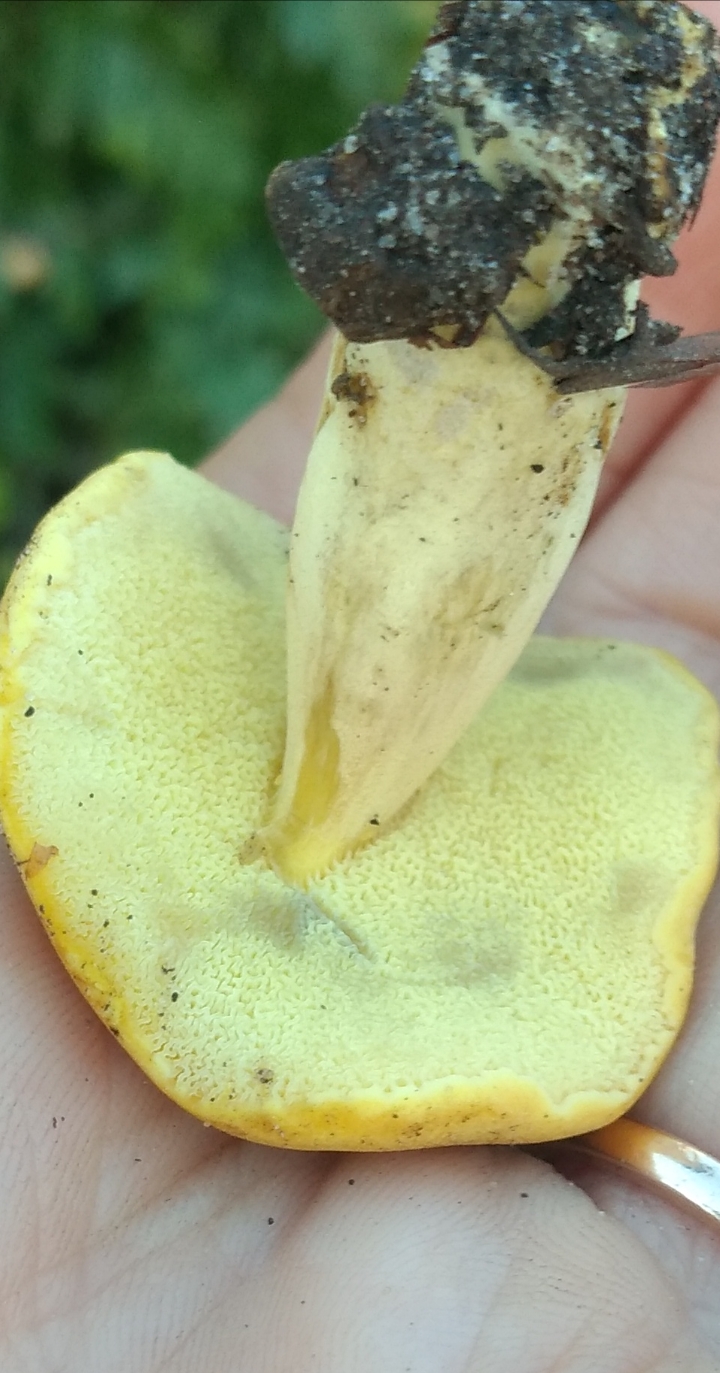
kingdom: Fungi
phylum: Basidiomycota
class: Agaricomycetes
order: Boletales
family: Boletaceae
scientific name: Boletaceae
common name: rørhatfamilien
